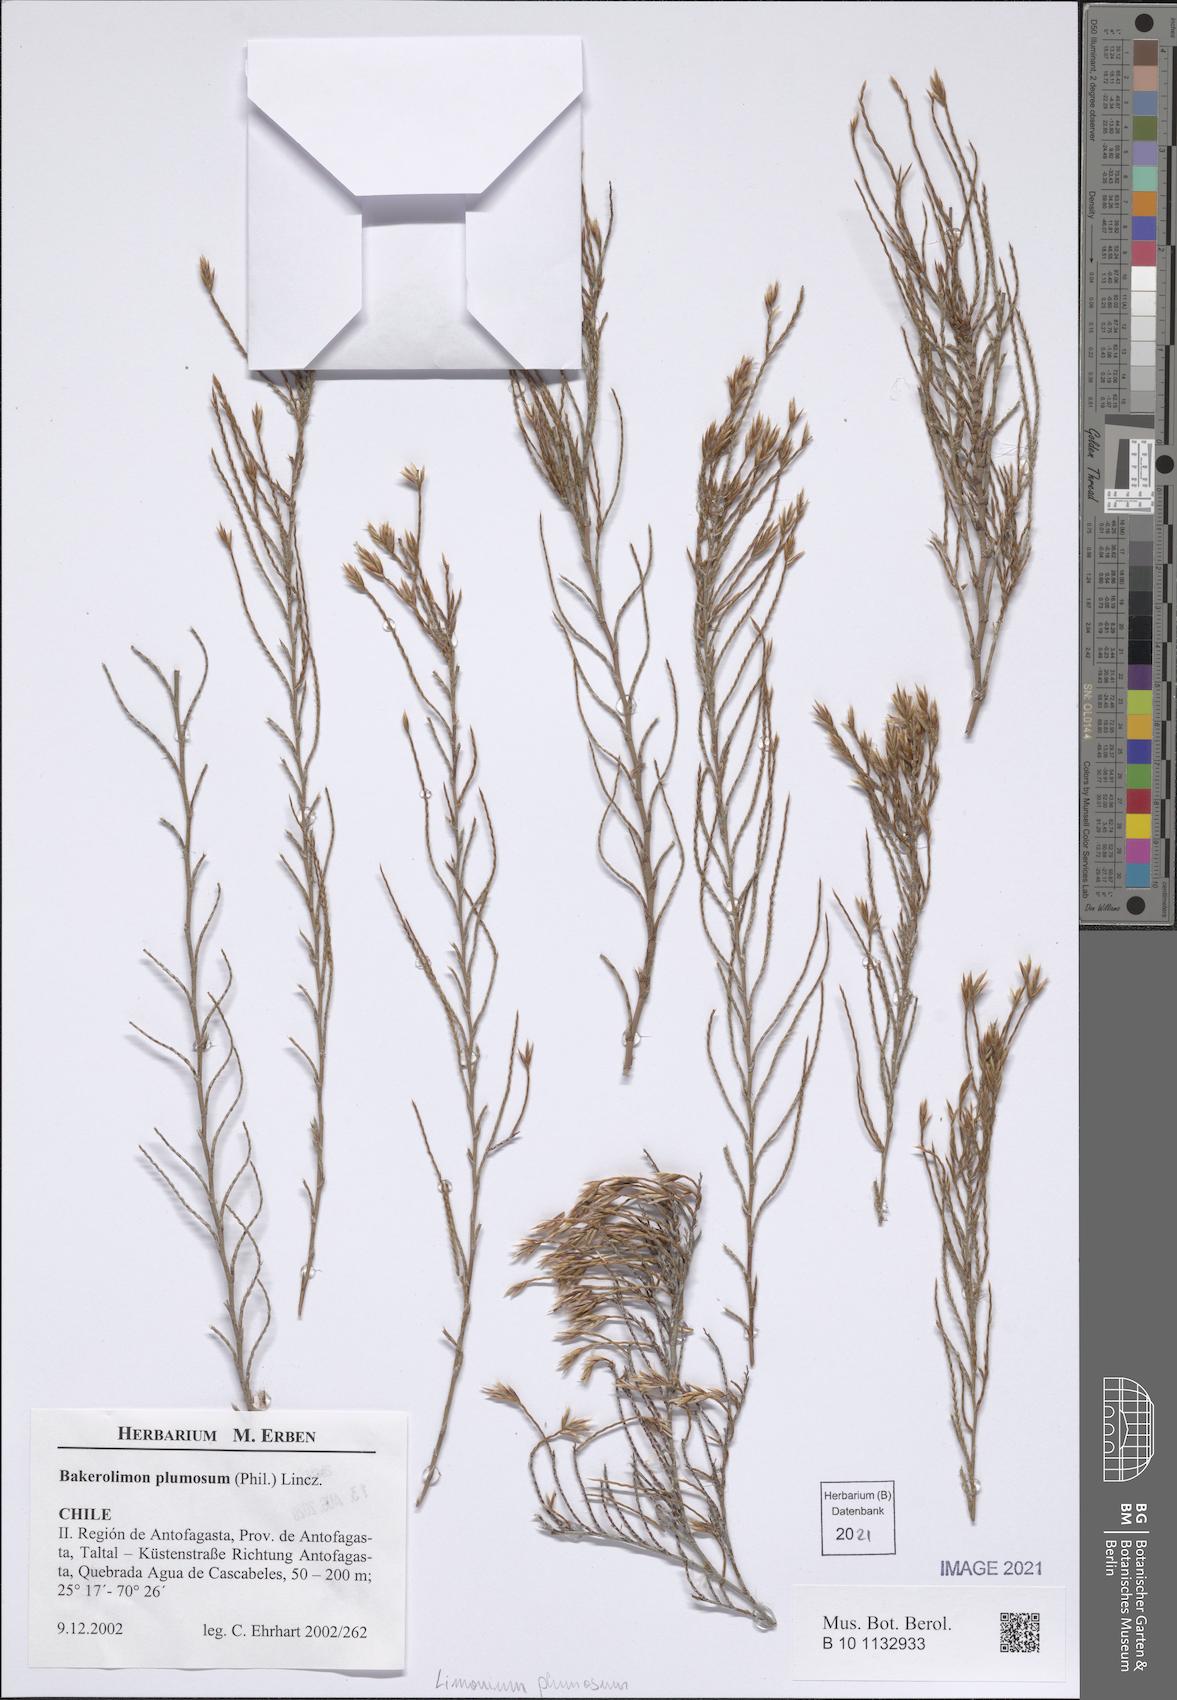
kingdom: Plantae
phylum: Tracheophyta
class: Magnoliopsida
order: Caryophyllales
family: Plumbaginaceae
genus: Bakerolimon
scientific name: Bakerolimon plumosum
